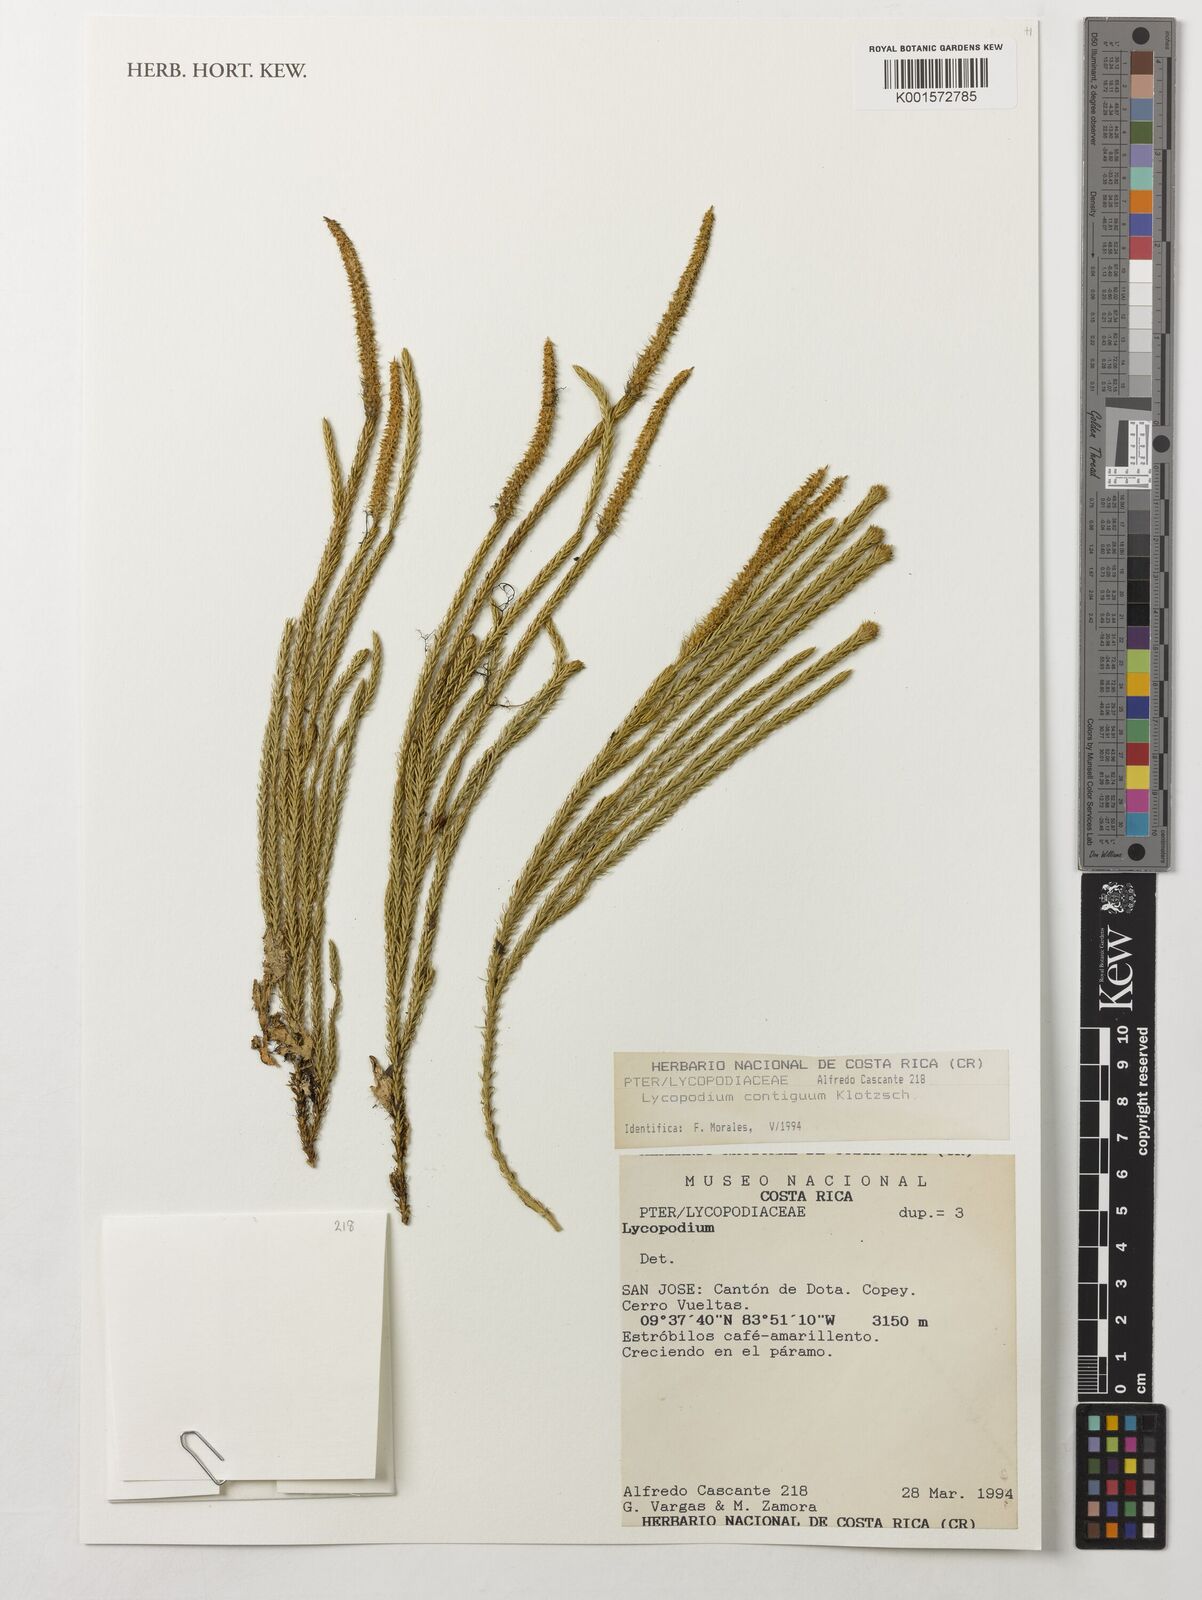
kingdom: Plantae
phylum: Tracheophyta
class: Lycopodiopsida
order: Lycopodiales
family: Lycopodiaceae
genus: Lycopodium
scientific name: Lycopodium clavatum
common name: Stag's-horn clubmoss
